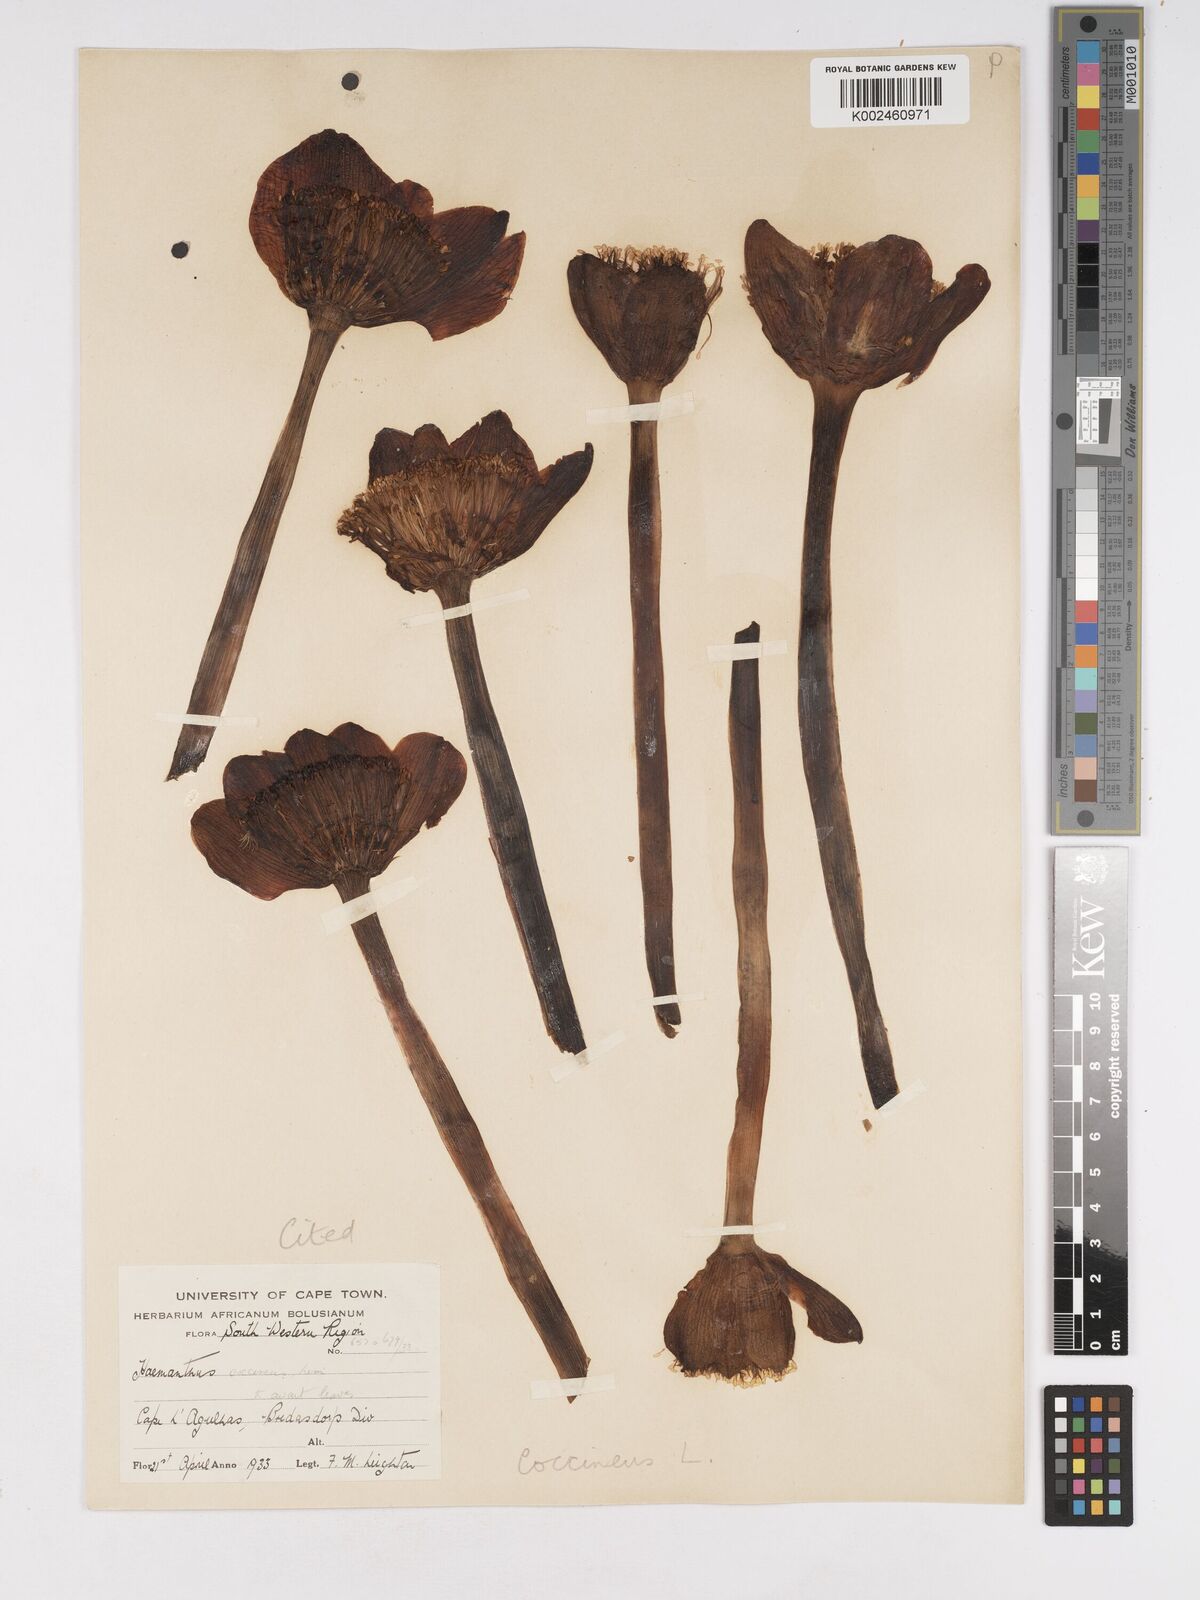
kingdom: Plantae
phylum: Tracheophyta
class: Liliopsida
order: Asparagales
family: Amaryllidaceae
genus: Haemanthus
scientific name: Haemanthus coccineus
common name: Cape-tulip
